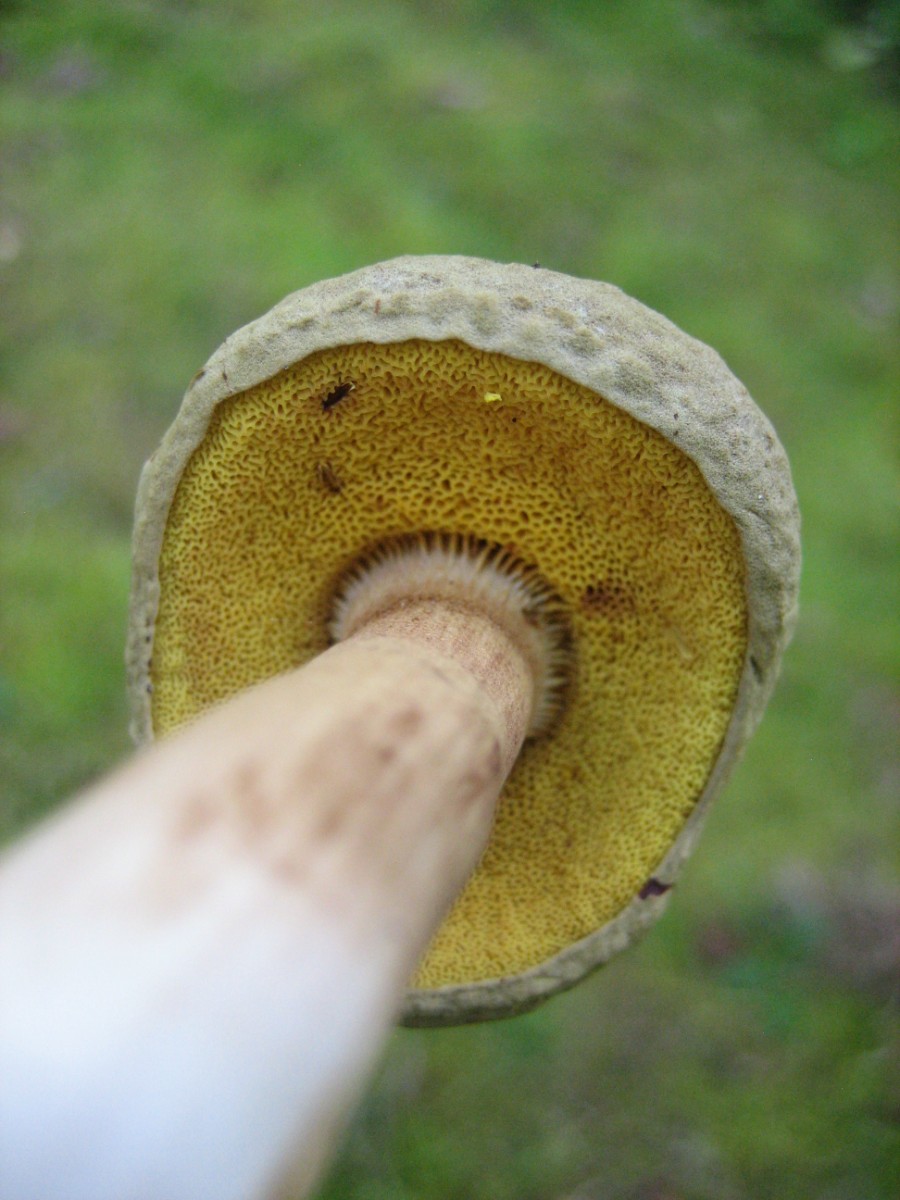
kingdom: Fungi
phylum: Basidiomycota
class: Agaricomycetes
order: Boletales
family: Boletaceae
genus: Xerocomus
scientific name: Xerocomus ferrugineus
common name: vaskeskinds-rørhat
